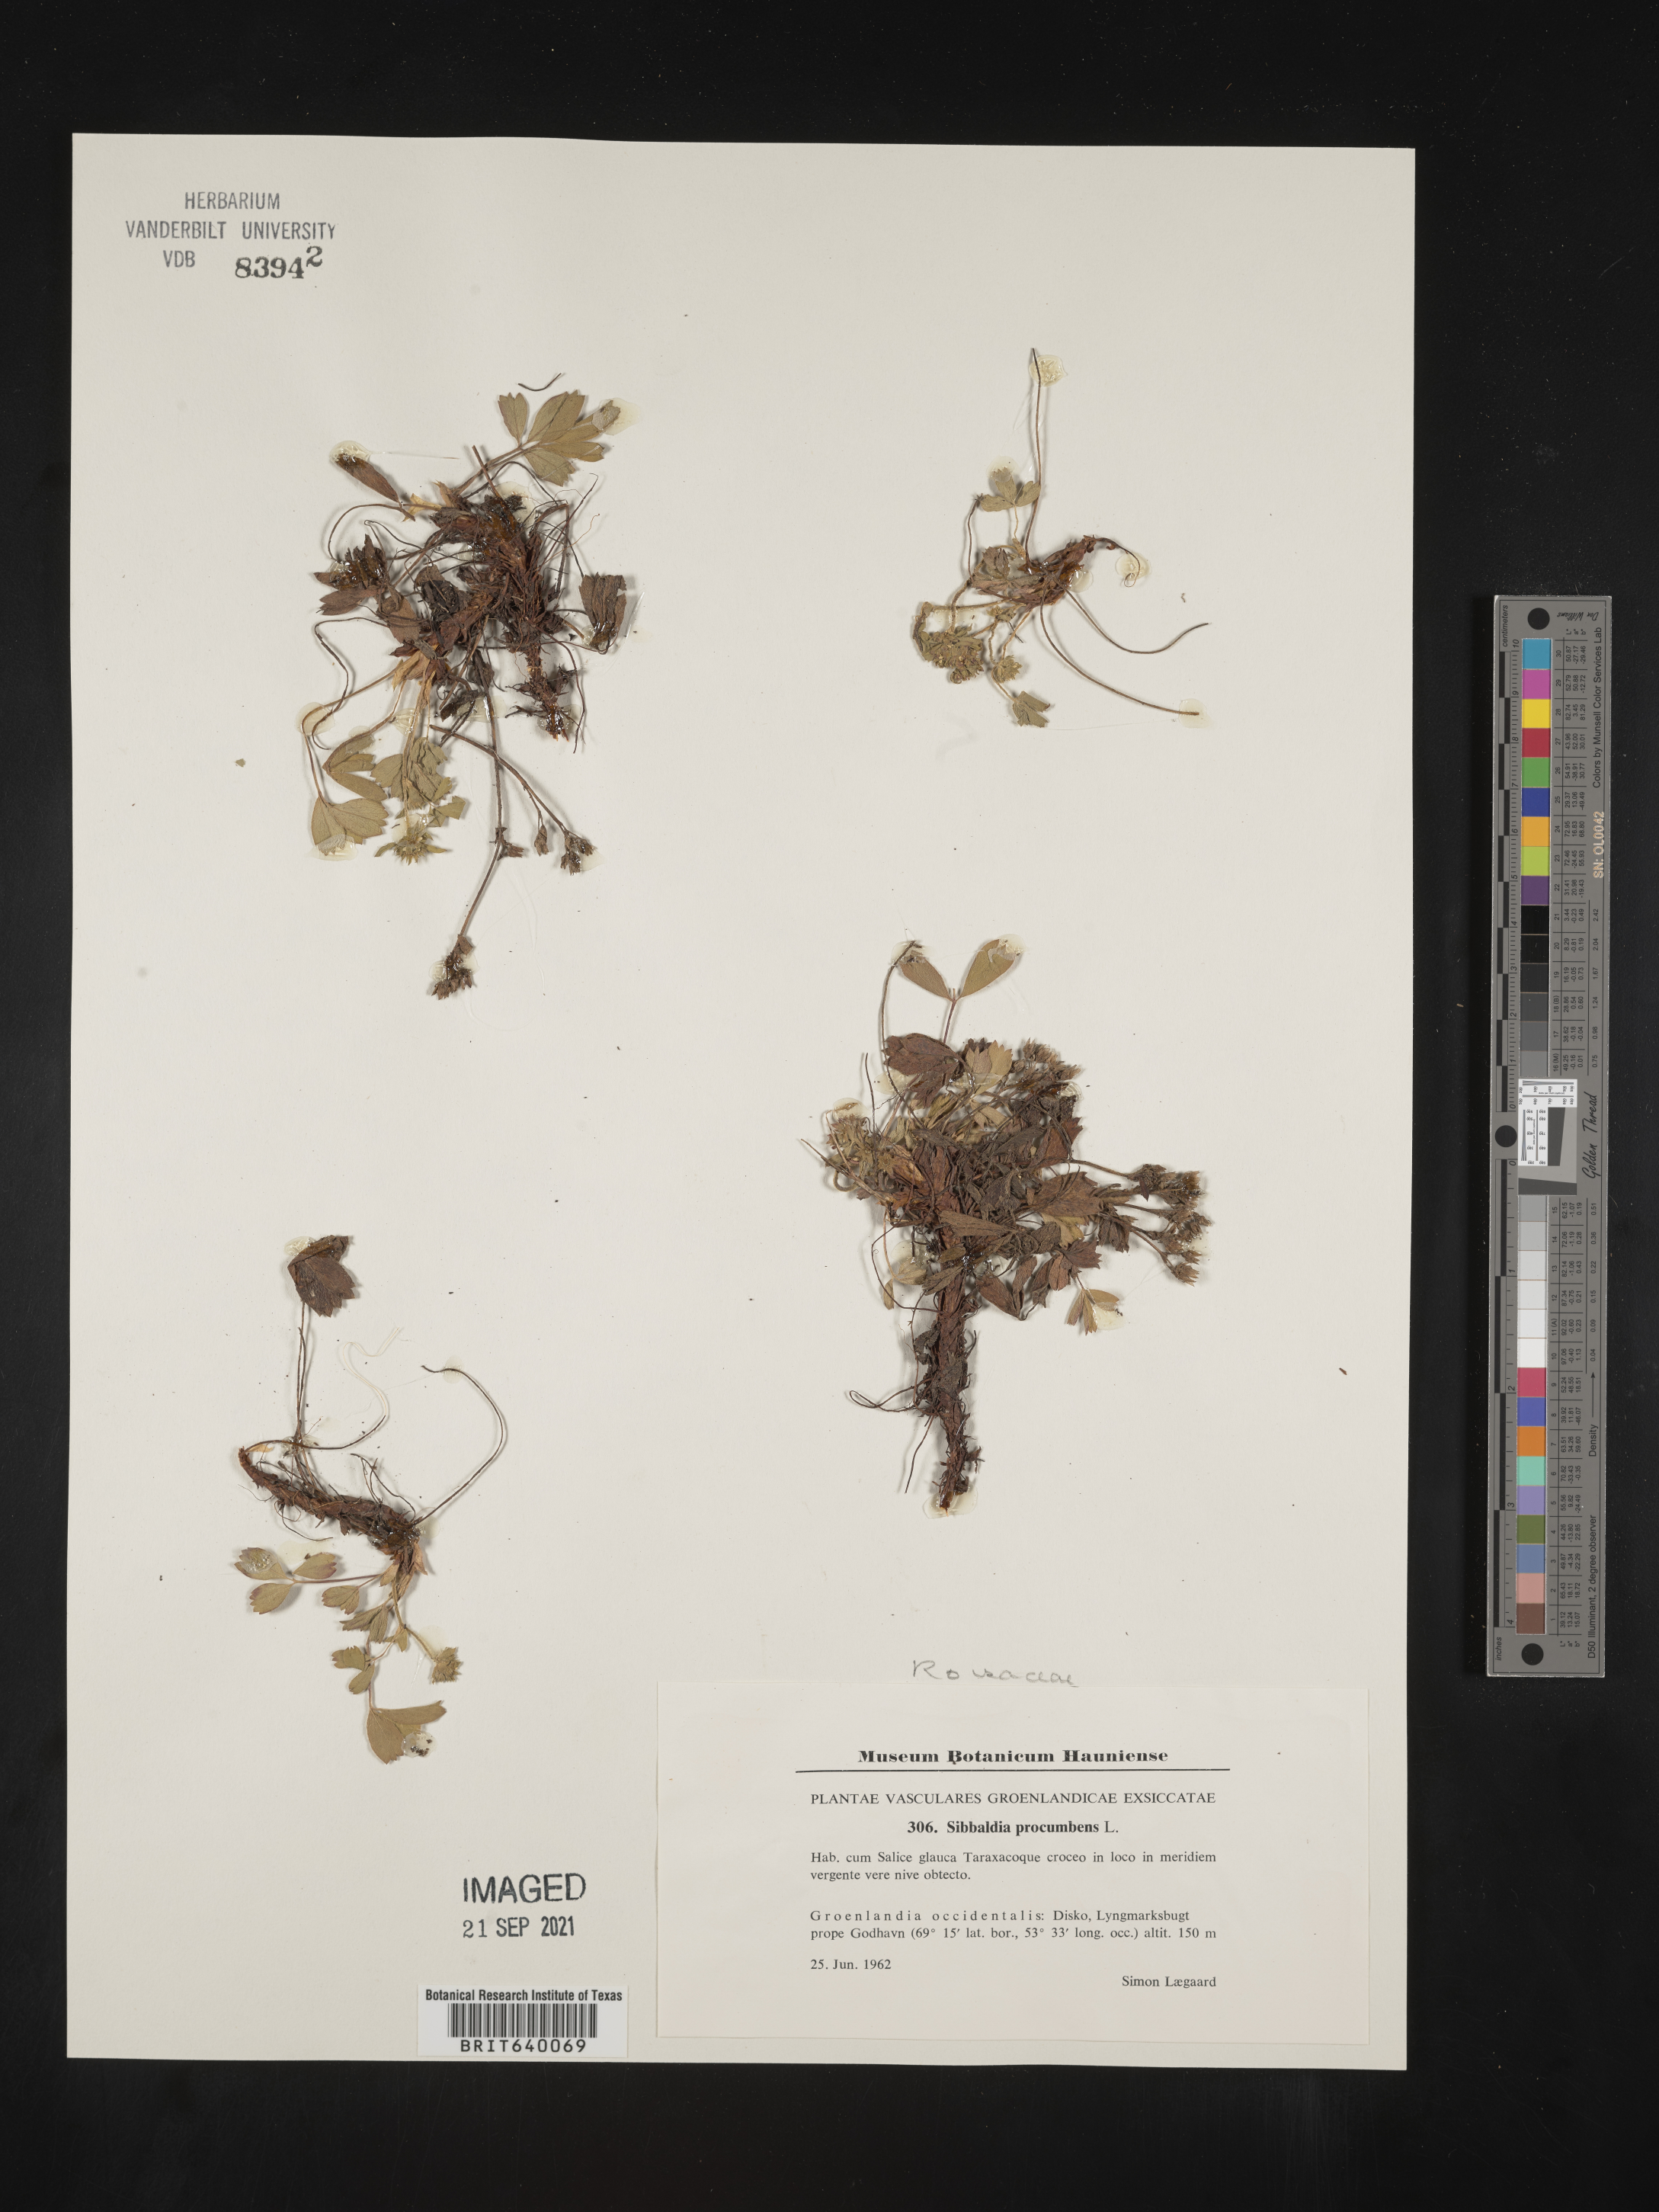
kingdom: Plantae
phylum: Tracheophyta
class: Magnoliopsida
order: Rosales
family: Rosaceae
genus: Sibbaldia
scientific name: Sibbaldia
